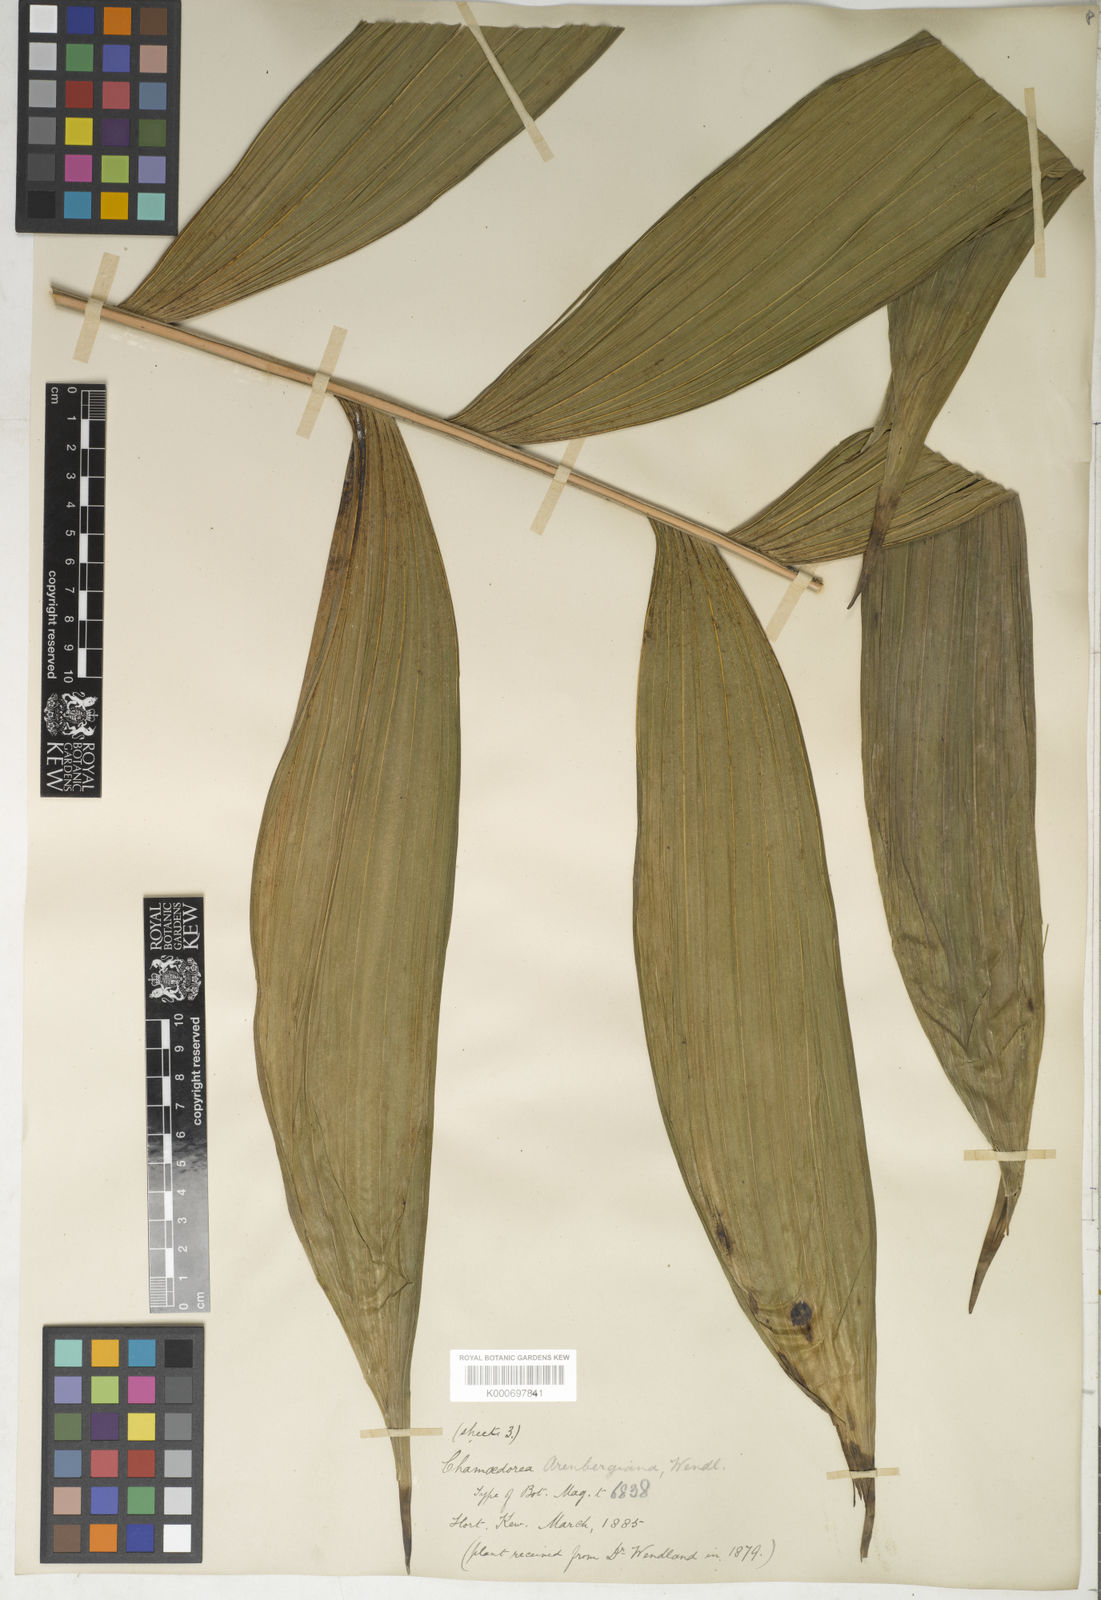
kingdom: Plantae
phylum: Tracheophyta
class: Liliopsida
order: Arecales
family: Arecaceae
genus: Chamaedorea
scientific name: Chamaedorea arenbergiana
